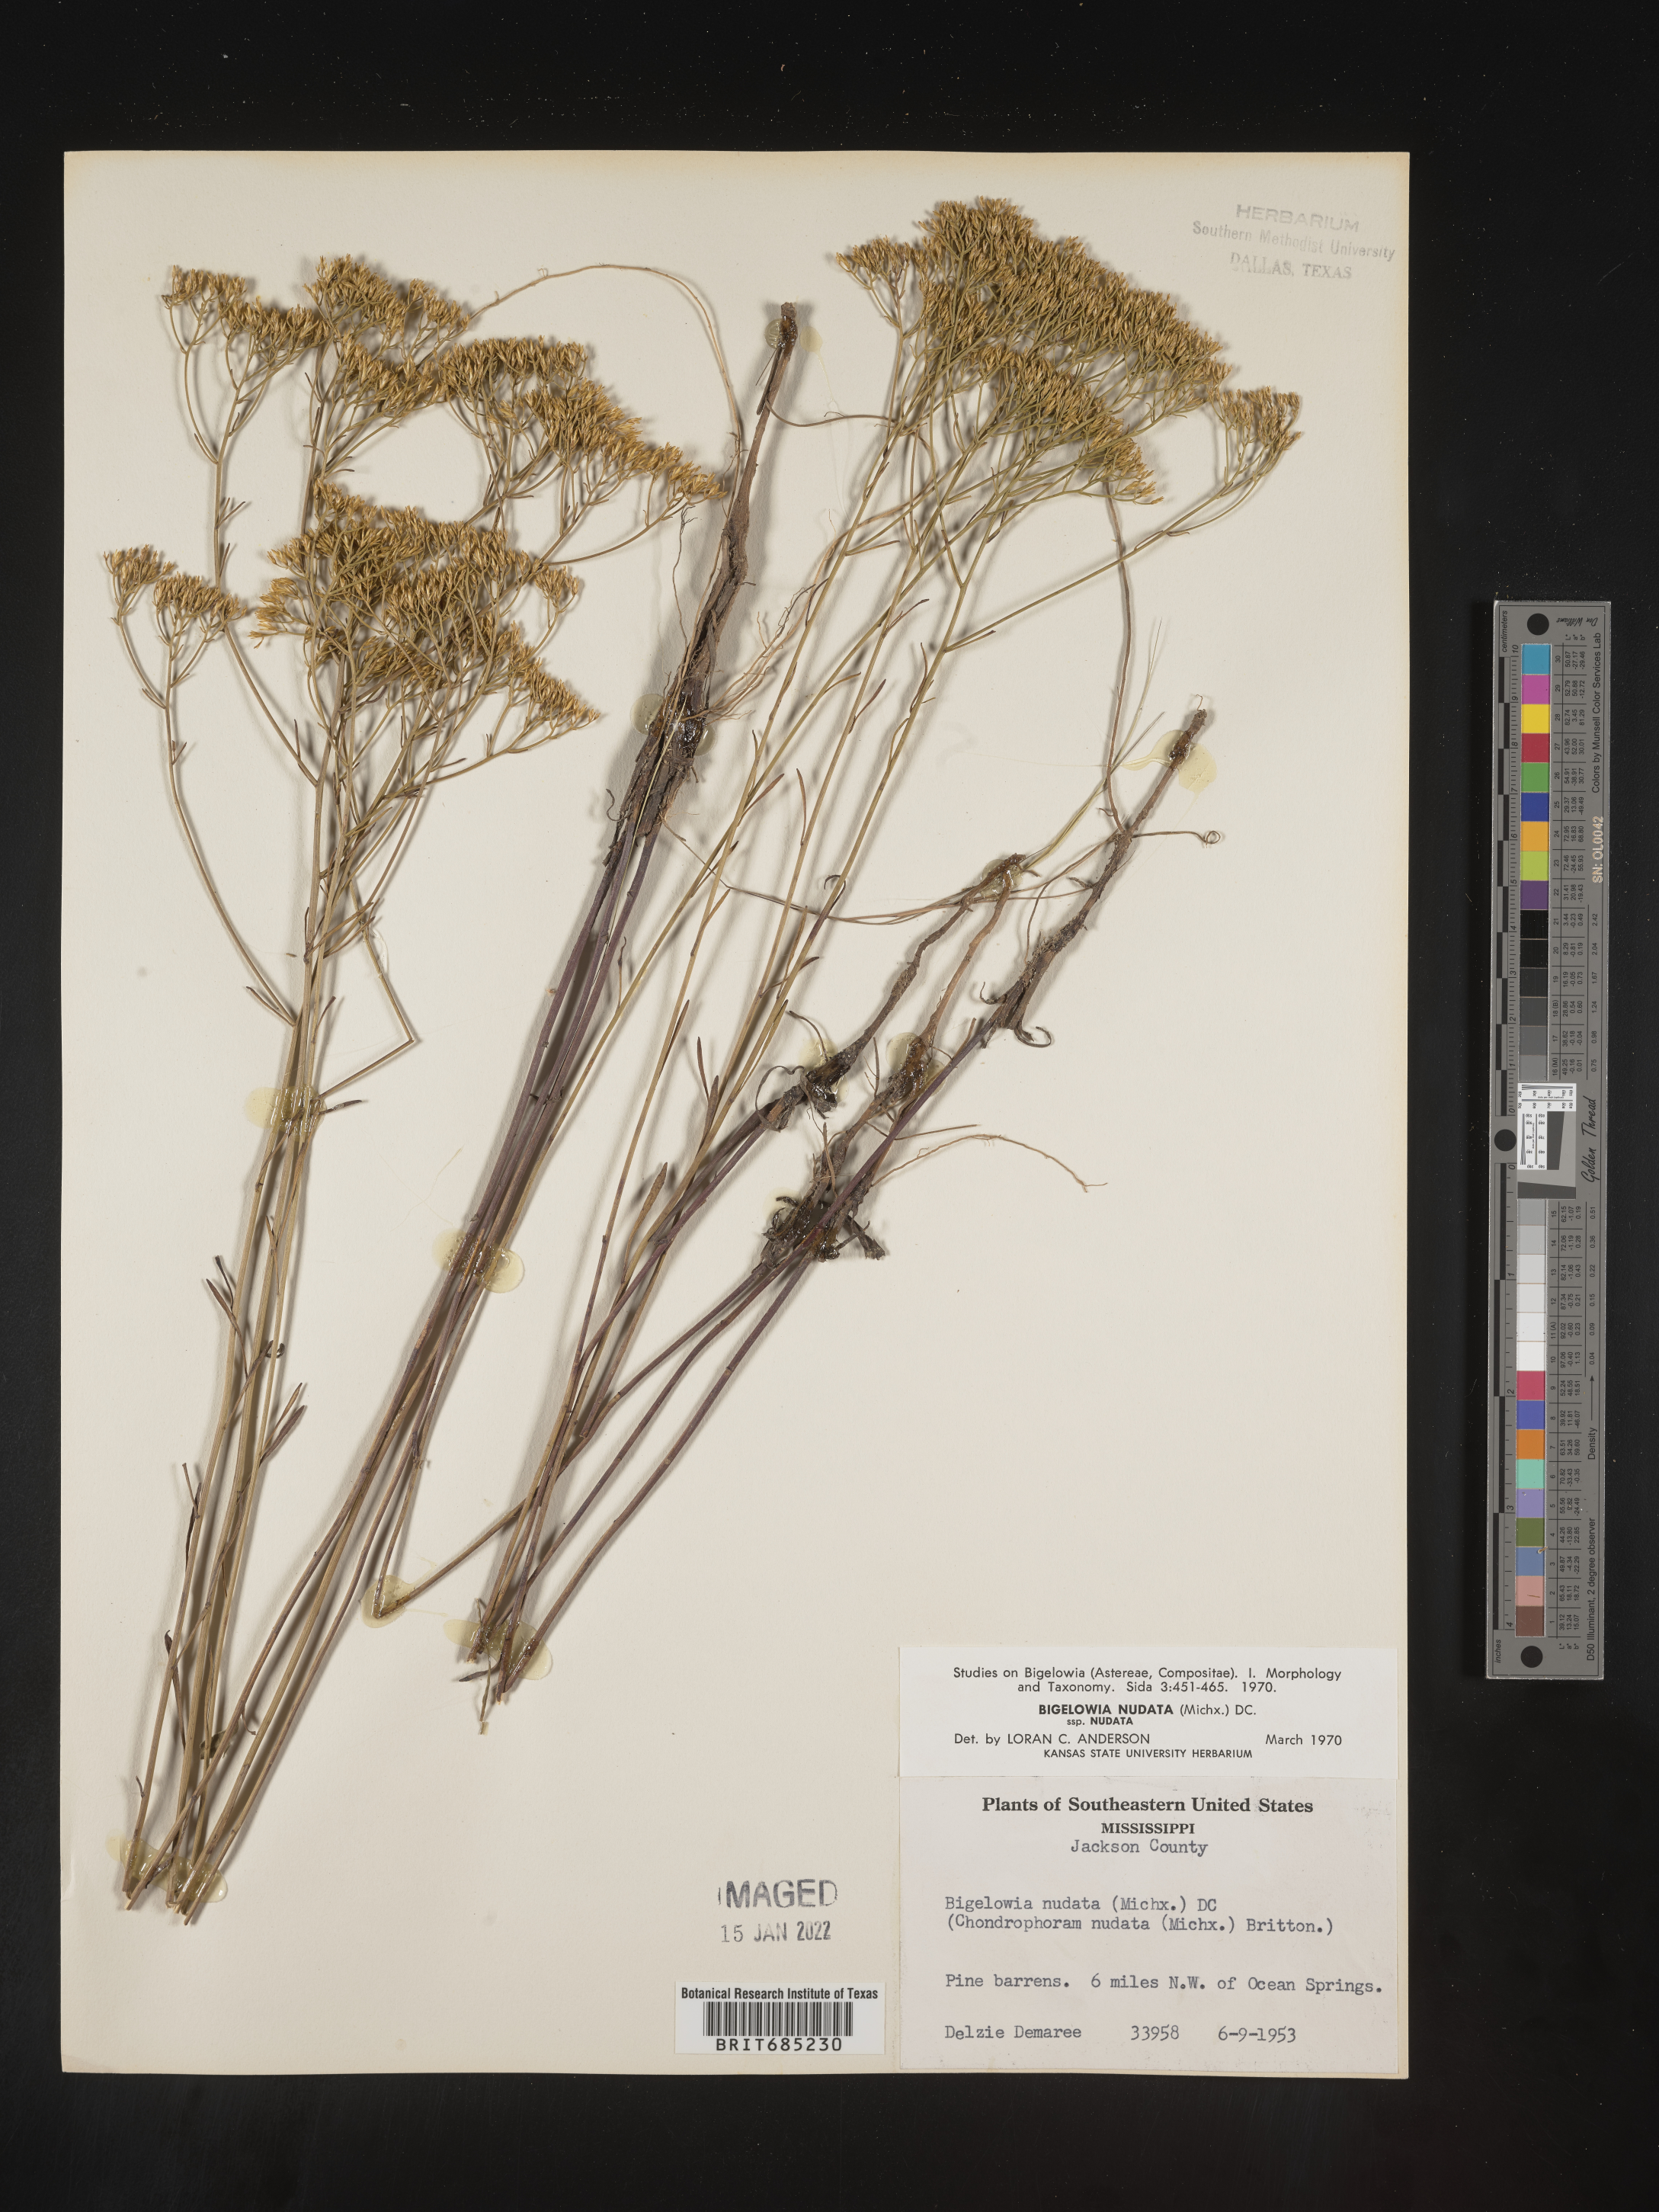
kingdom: Plantae
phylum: Tracheophyta
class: Magnoliopsida
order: Asterales
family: Asteraceae
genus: Bigelowia
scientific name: Bigelowia nudata
